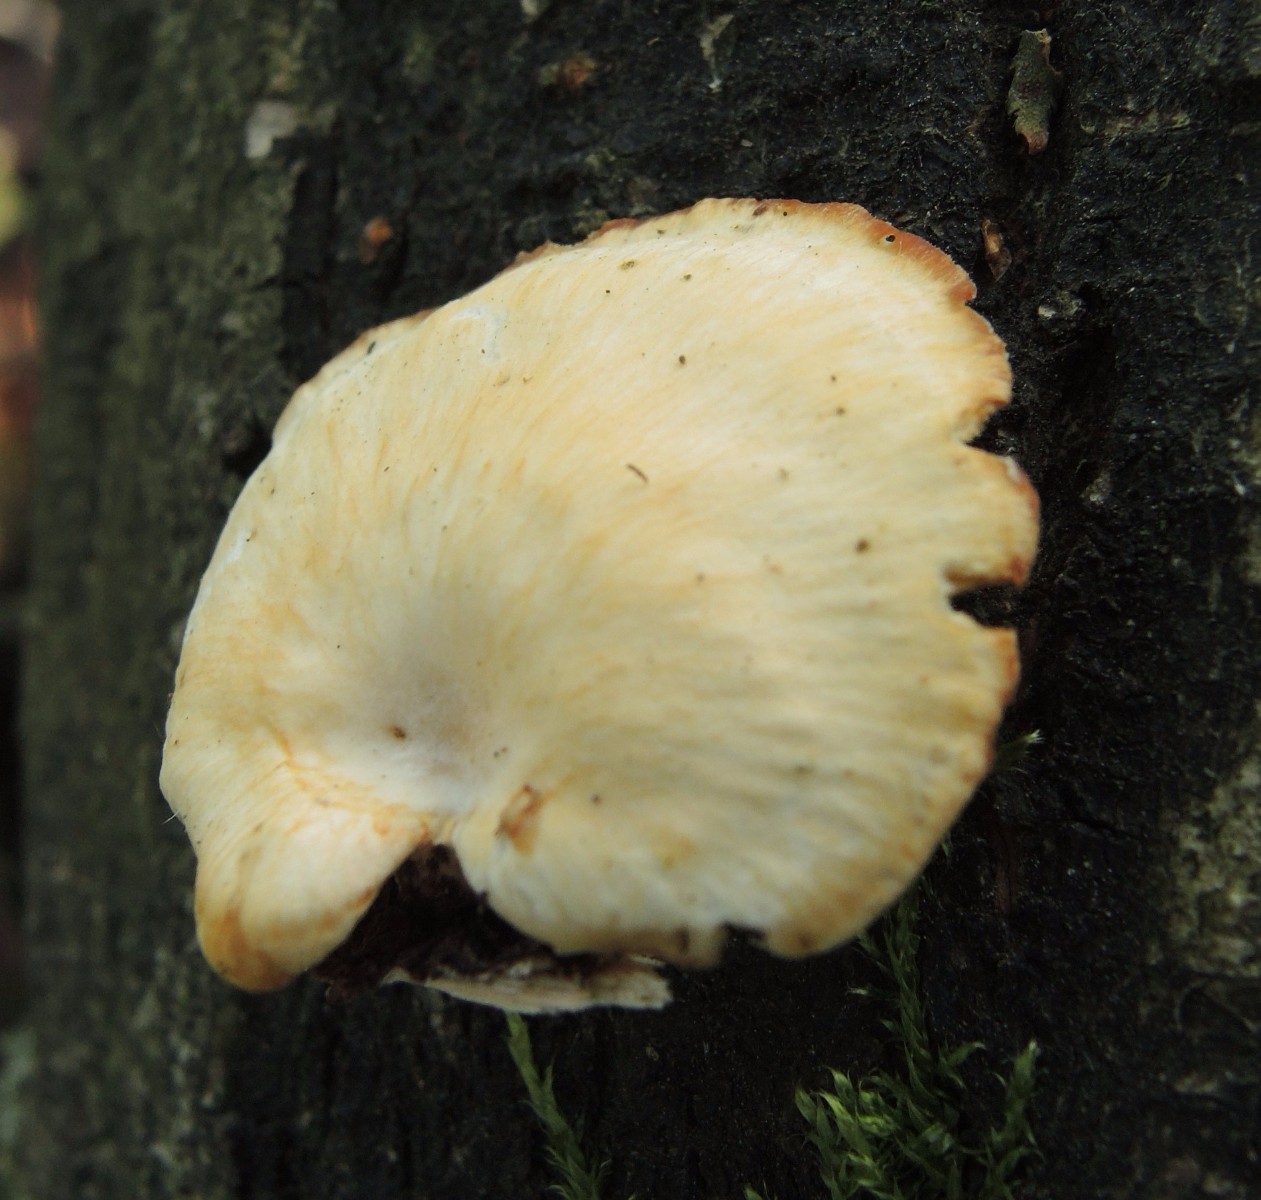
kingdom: Fungi
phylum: Basidiomycota
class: Agaricomycetes
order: Polyporales
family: Polyporaceae
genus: Neofavolus
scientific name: Neofavolus suavissimus
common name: anishat
